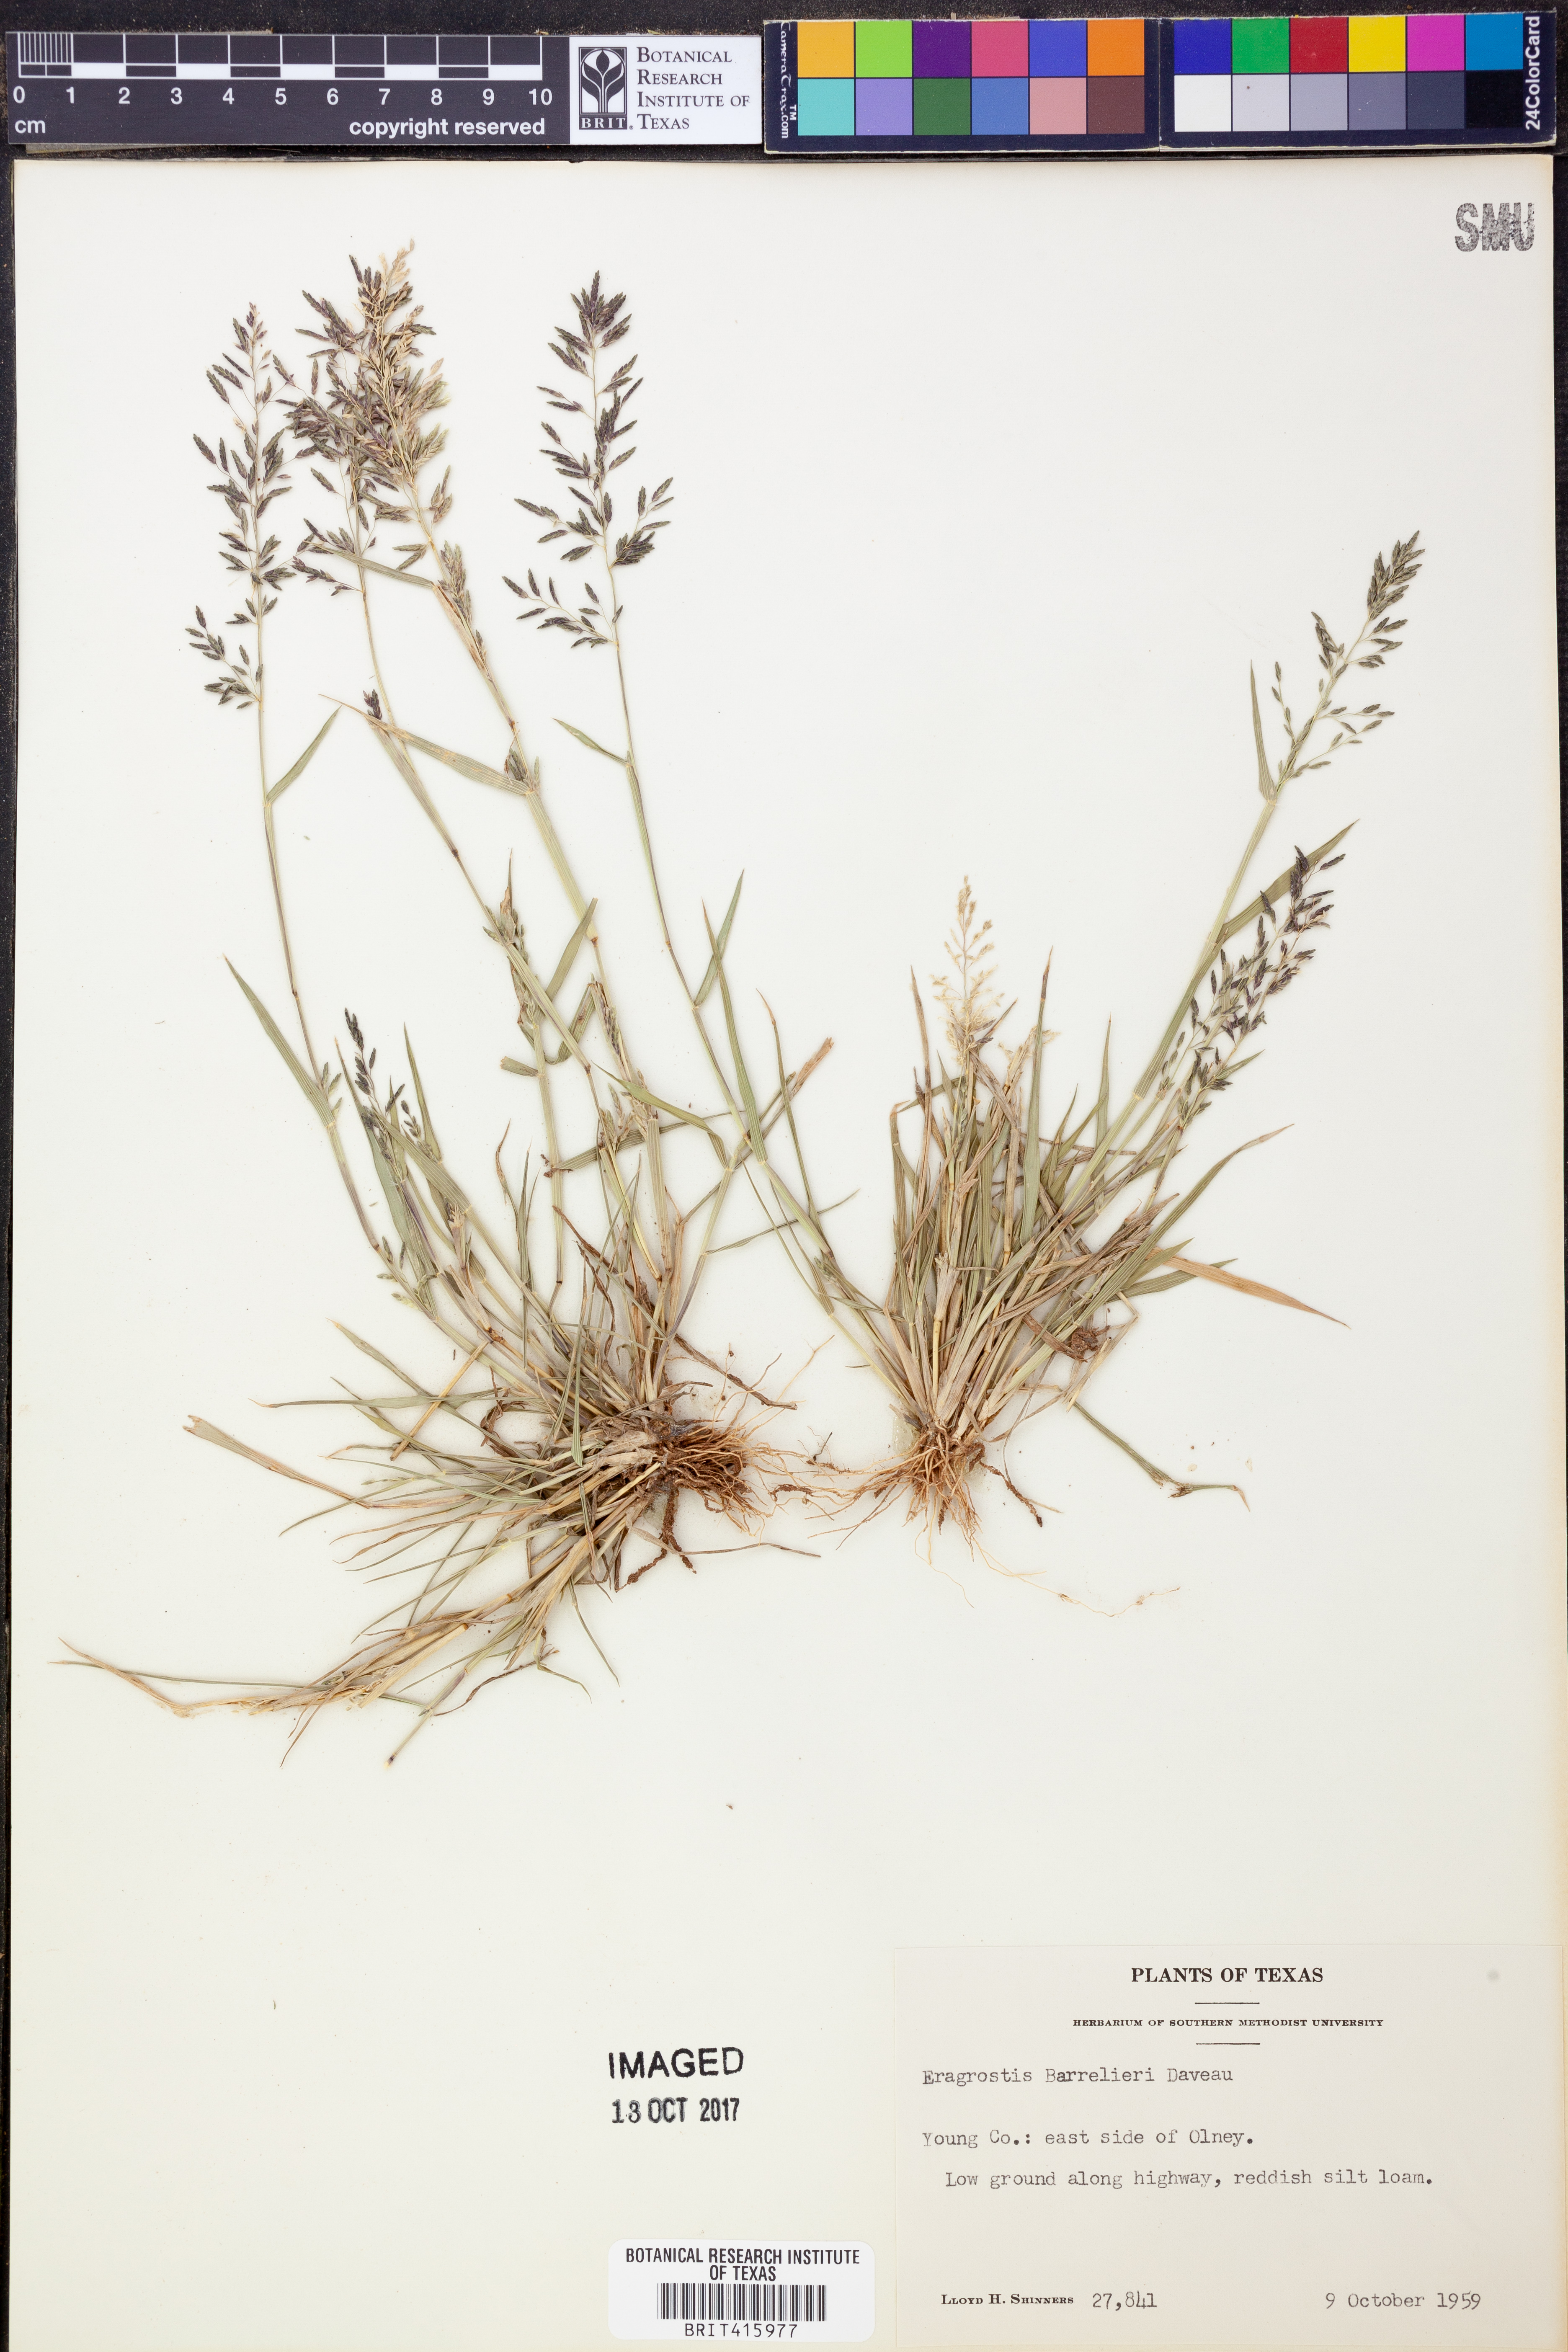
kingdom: Plantae
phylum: Tracheophyta
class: Liliopsida
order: Poales
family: Poaceae
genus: Eragrostis
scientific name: Eragrostis barrelieri
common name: Mediterranean lovegrass
